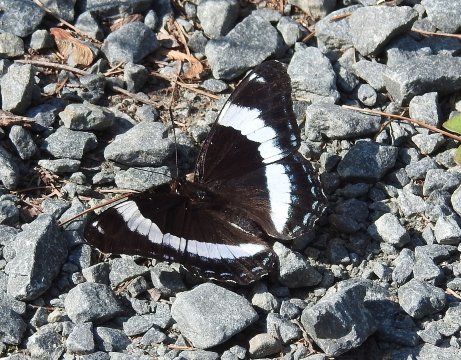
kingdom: Animalia
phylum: Arthropoda
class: Insecta
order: Lepidoptera
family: Nymphalidae
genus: Limenitis
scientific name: Limenitis arthemis
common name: Red-spotted Admiral
